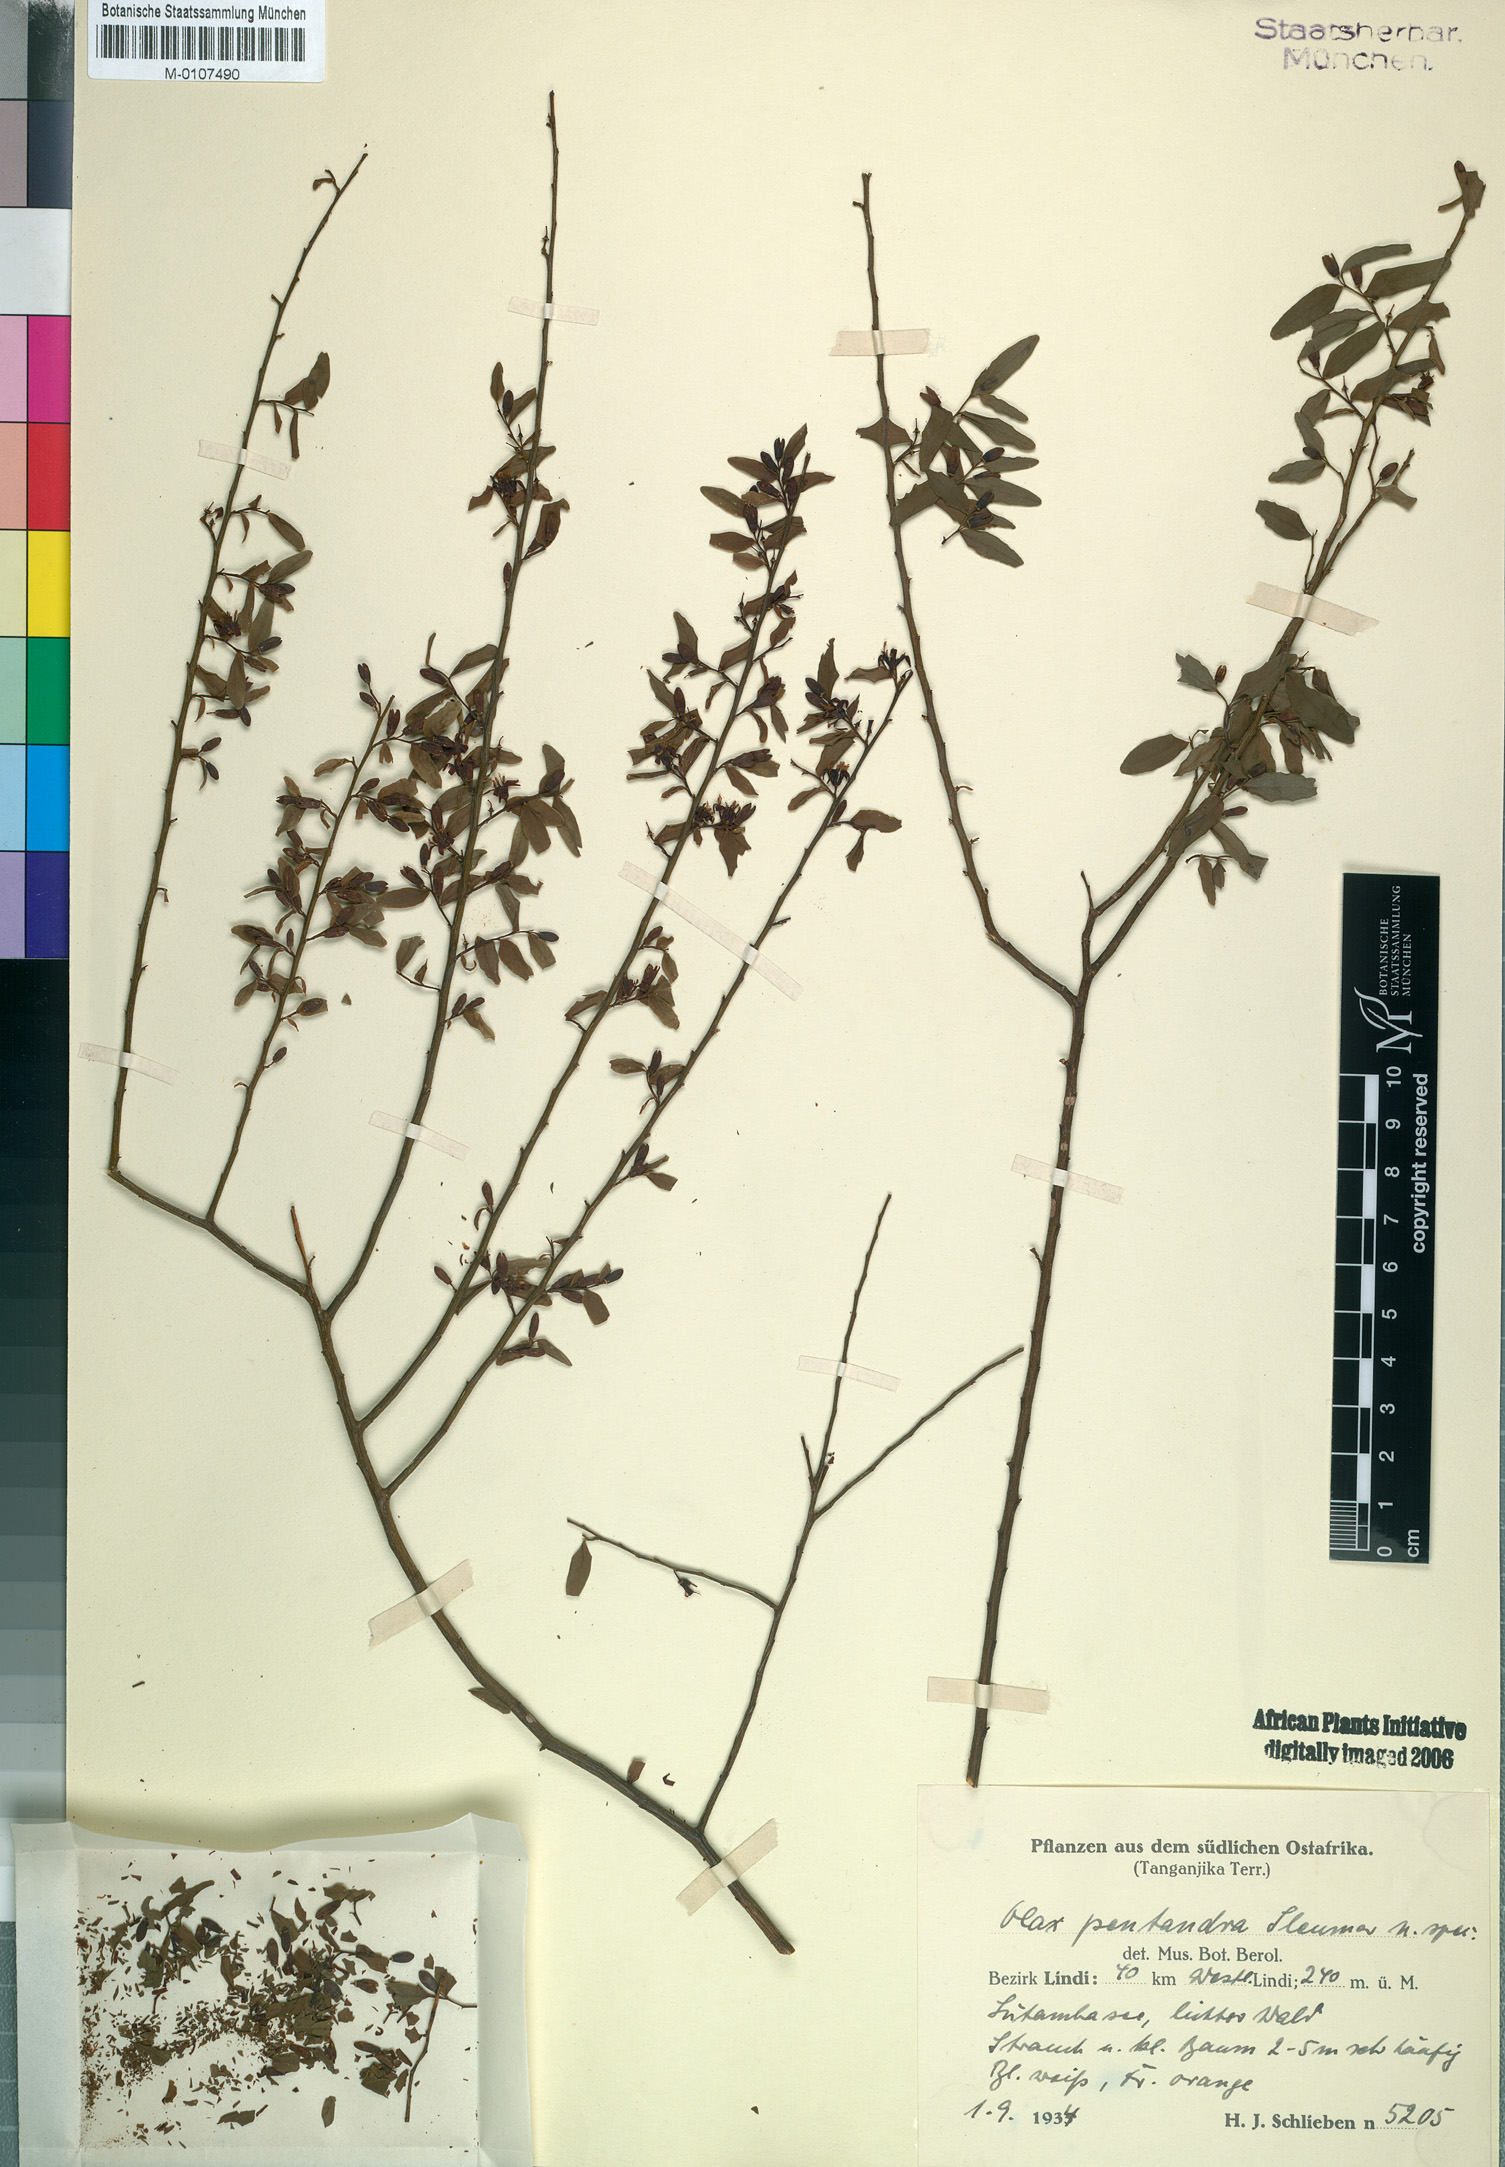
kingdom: Plantae
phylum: Tracheophyta
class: Magnoliopsida
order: Santalales
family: Olacaceae
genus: Olax
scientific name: Olax pentandra
